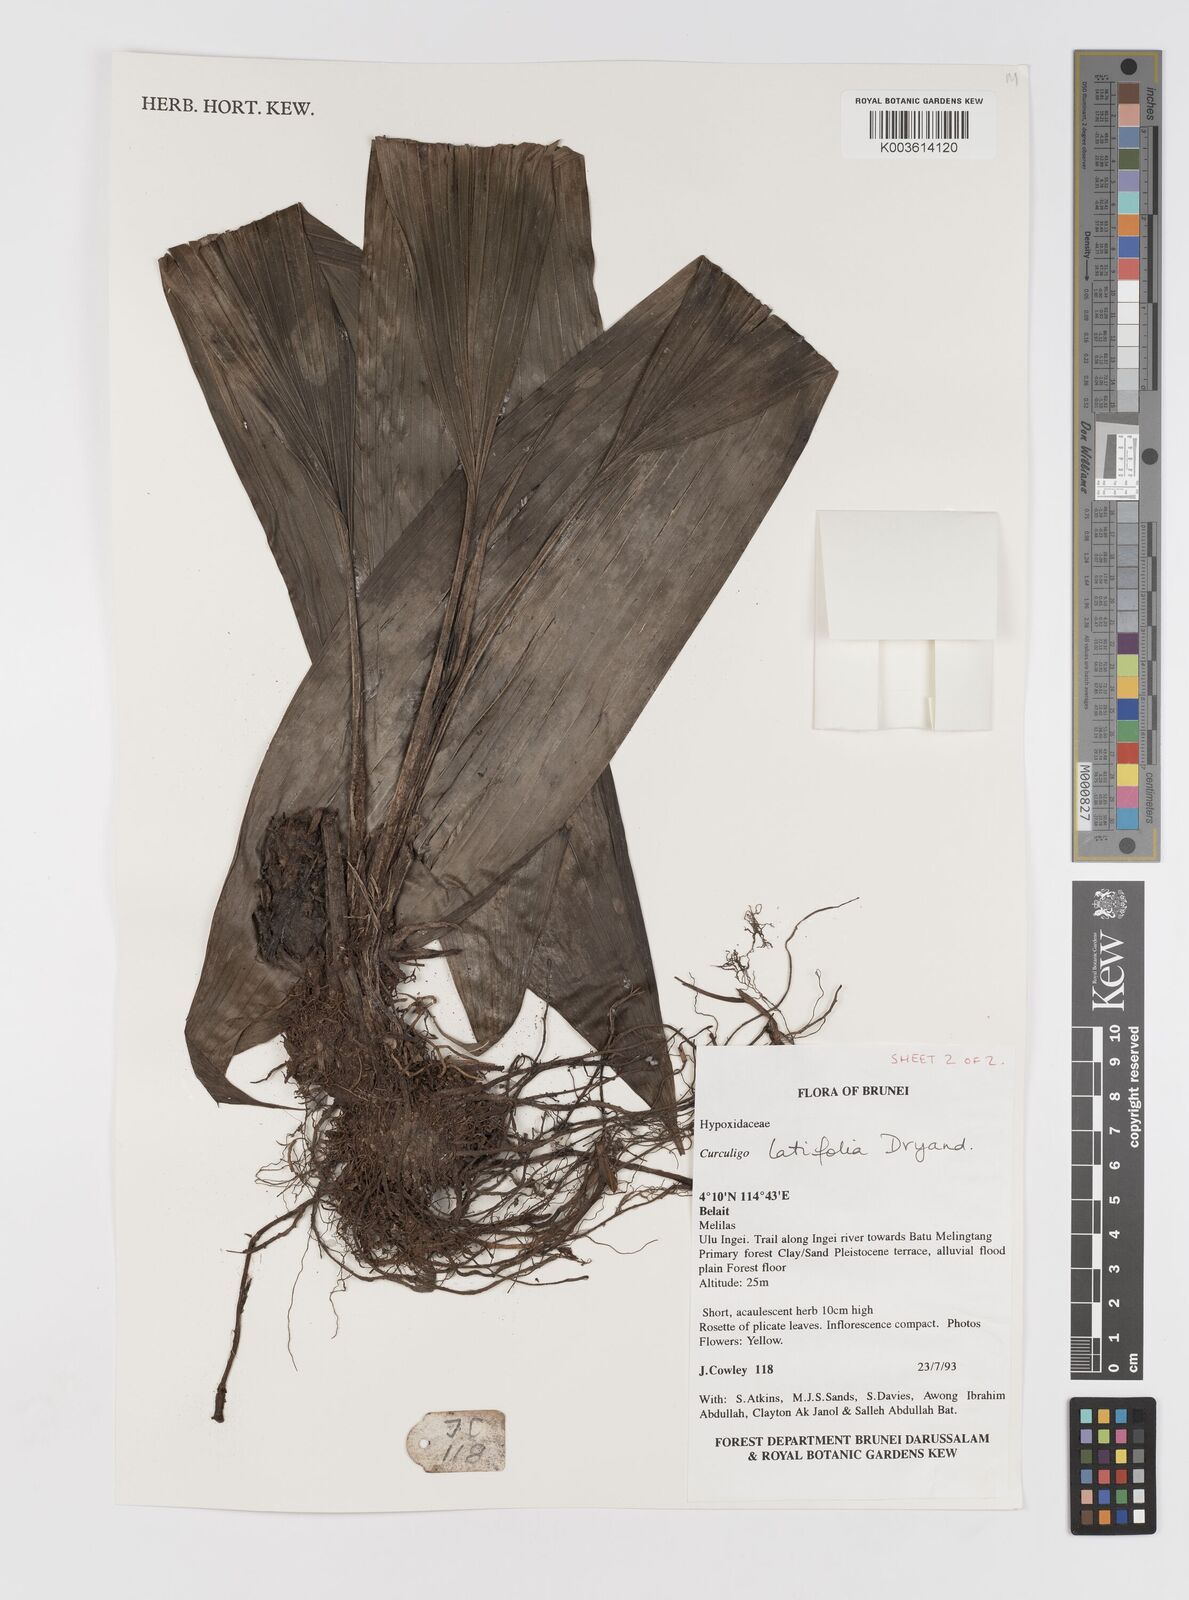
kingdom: Plantae
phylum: Tracheophyta
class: Liliopsida
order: Asparagales
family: Hypoxidaceae
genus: Curculigo
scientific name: Curculigo latifolia
